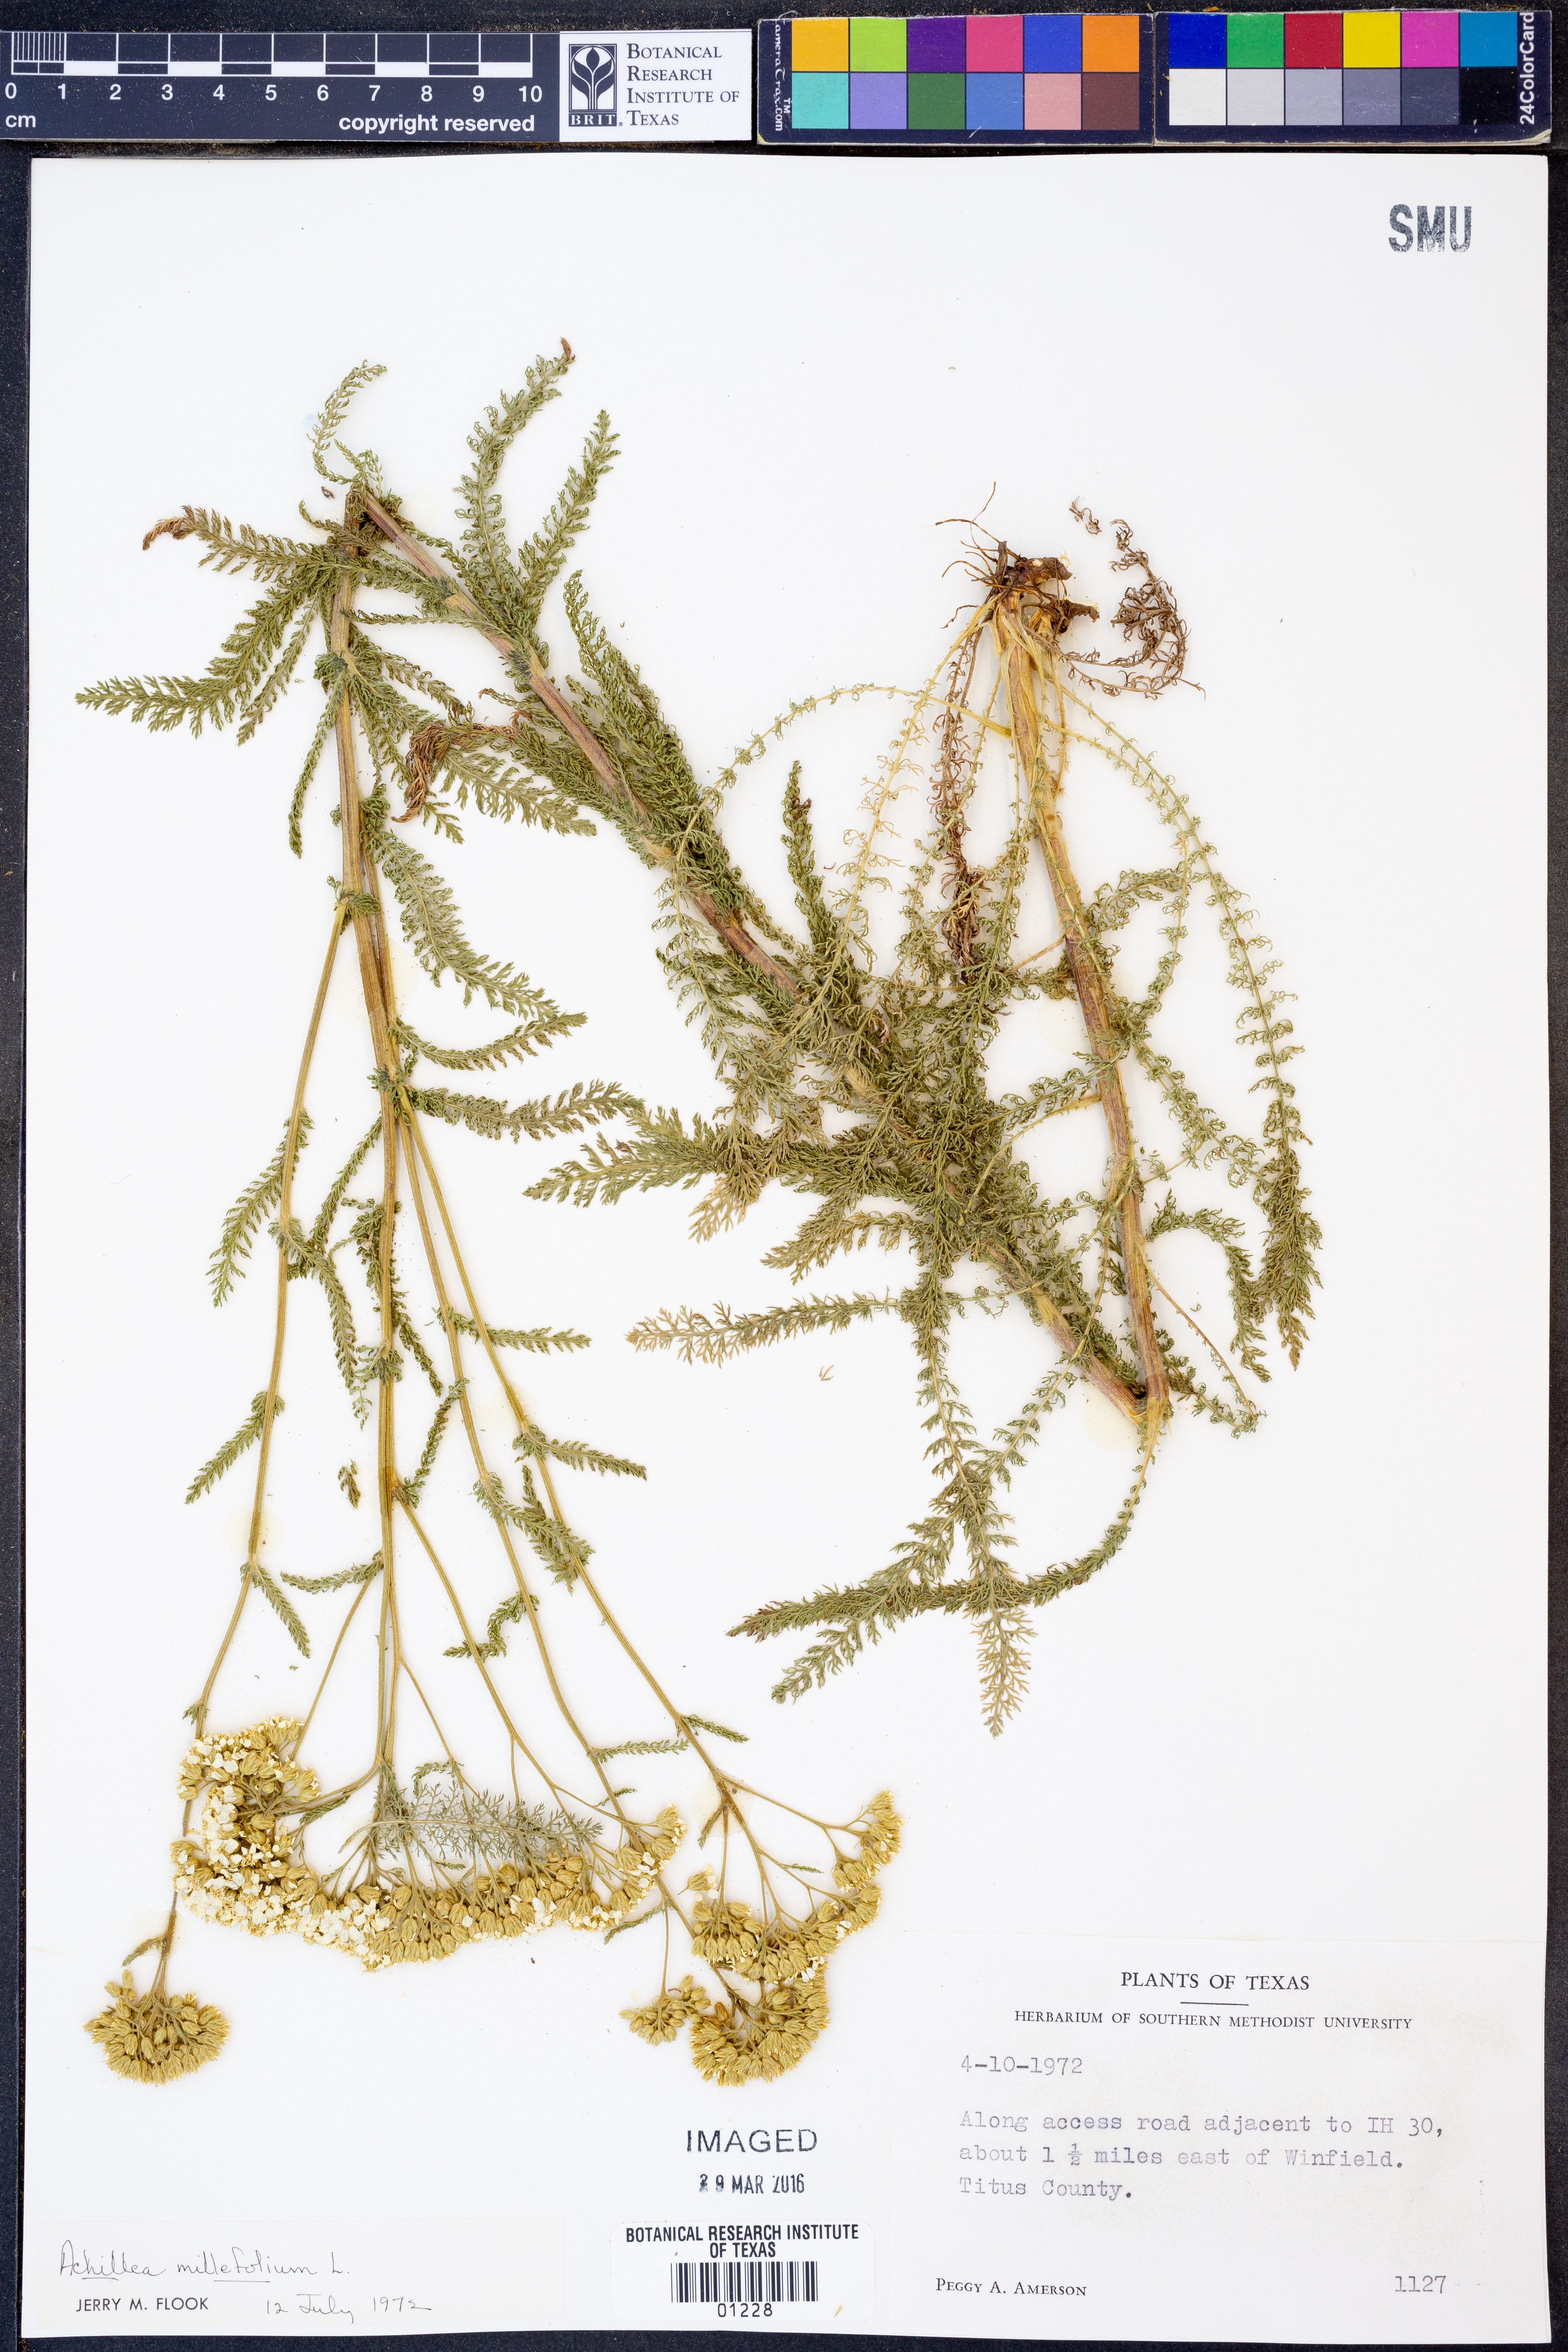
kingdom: Plantae
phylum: Tracheophyta
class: Magnoliopsida
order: Asterales
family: Asteraceae
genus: Achillea
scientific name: Achillea millefolium
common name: Yarrow
